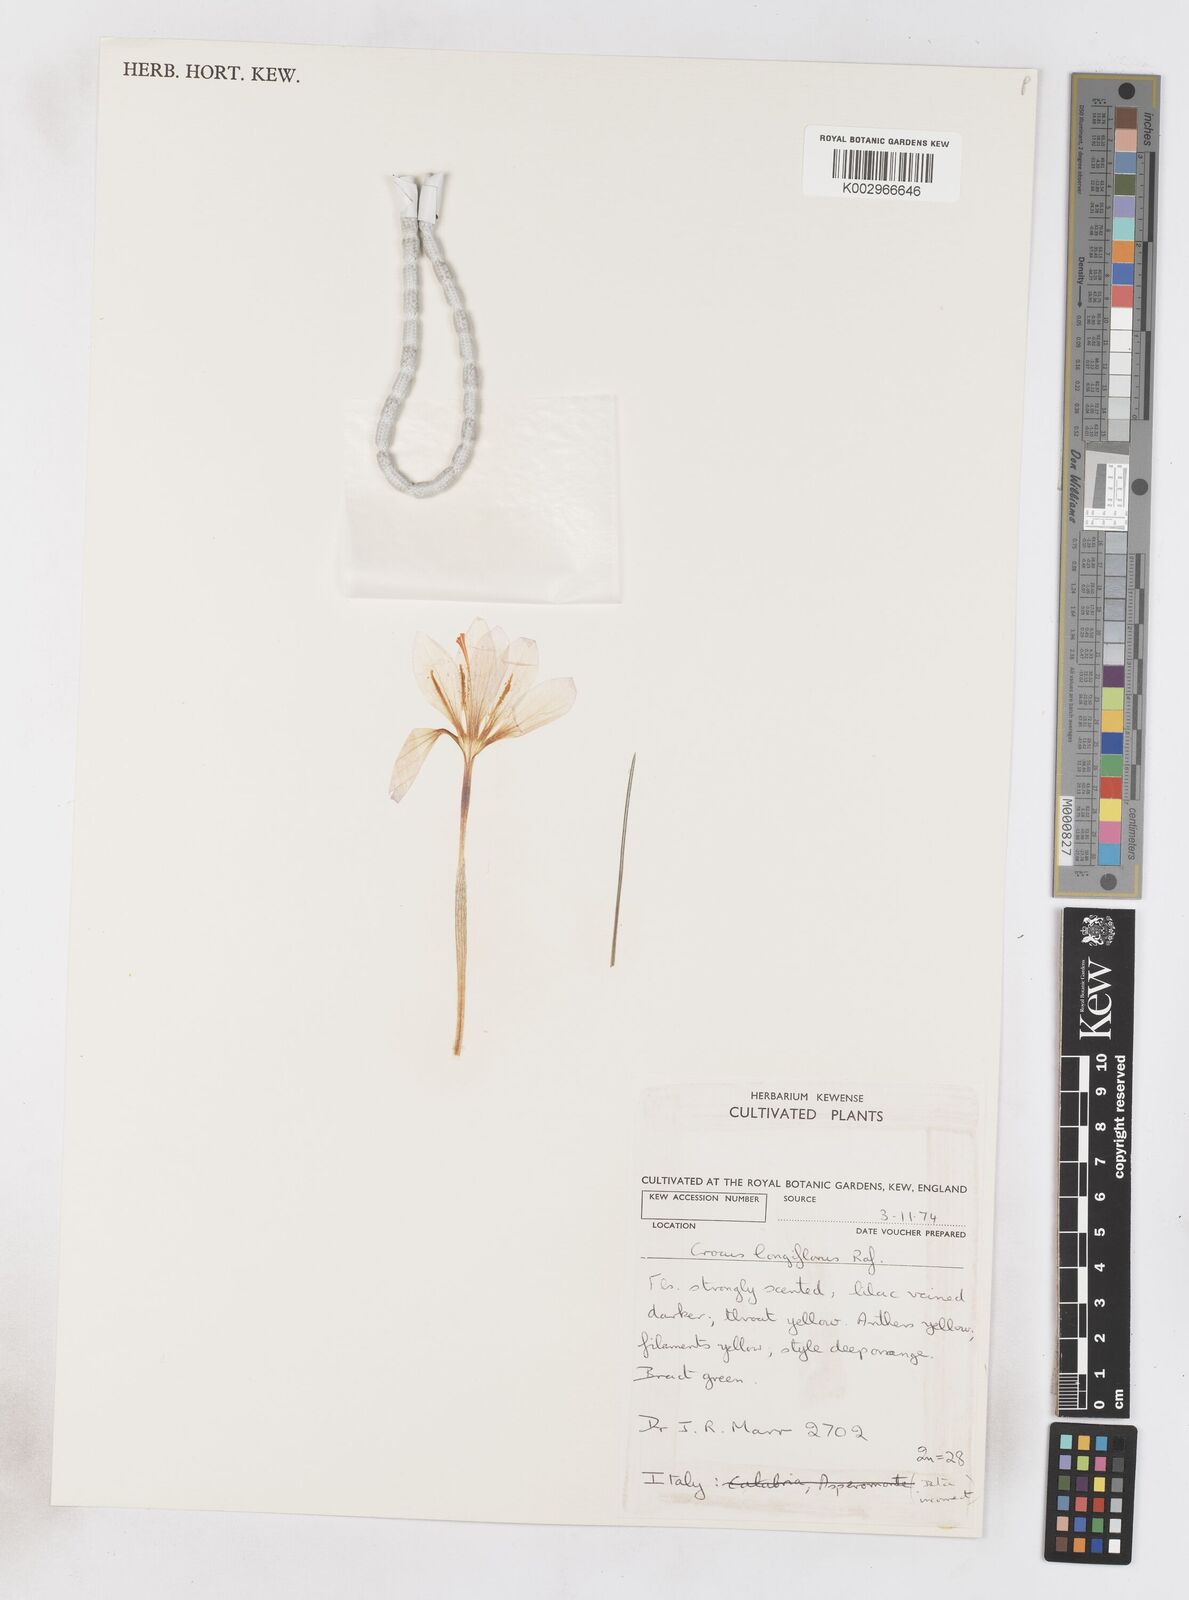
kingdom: Plantae
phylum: Tracheophyta
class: Liliopsida
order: Asparagales
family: Iridaceae
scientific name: Iridaceae
